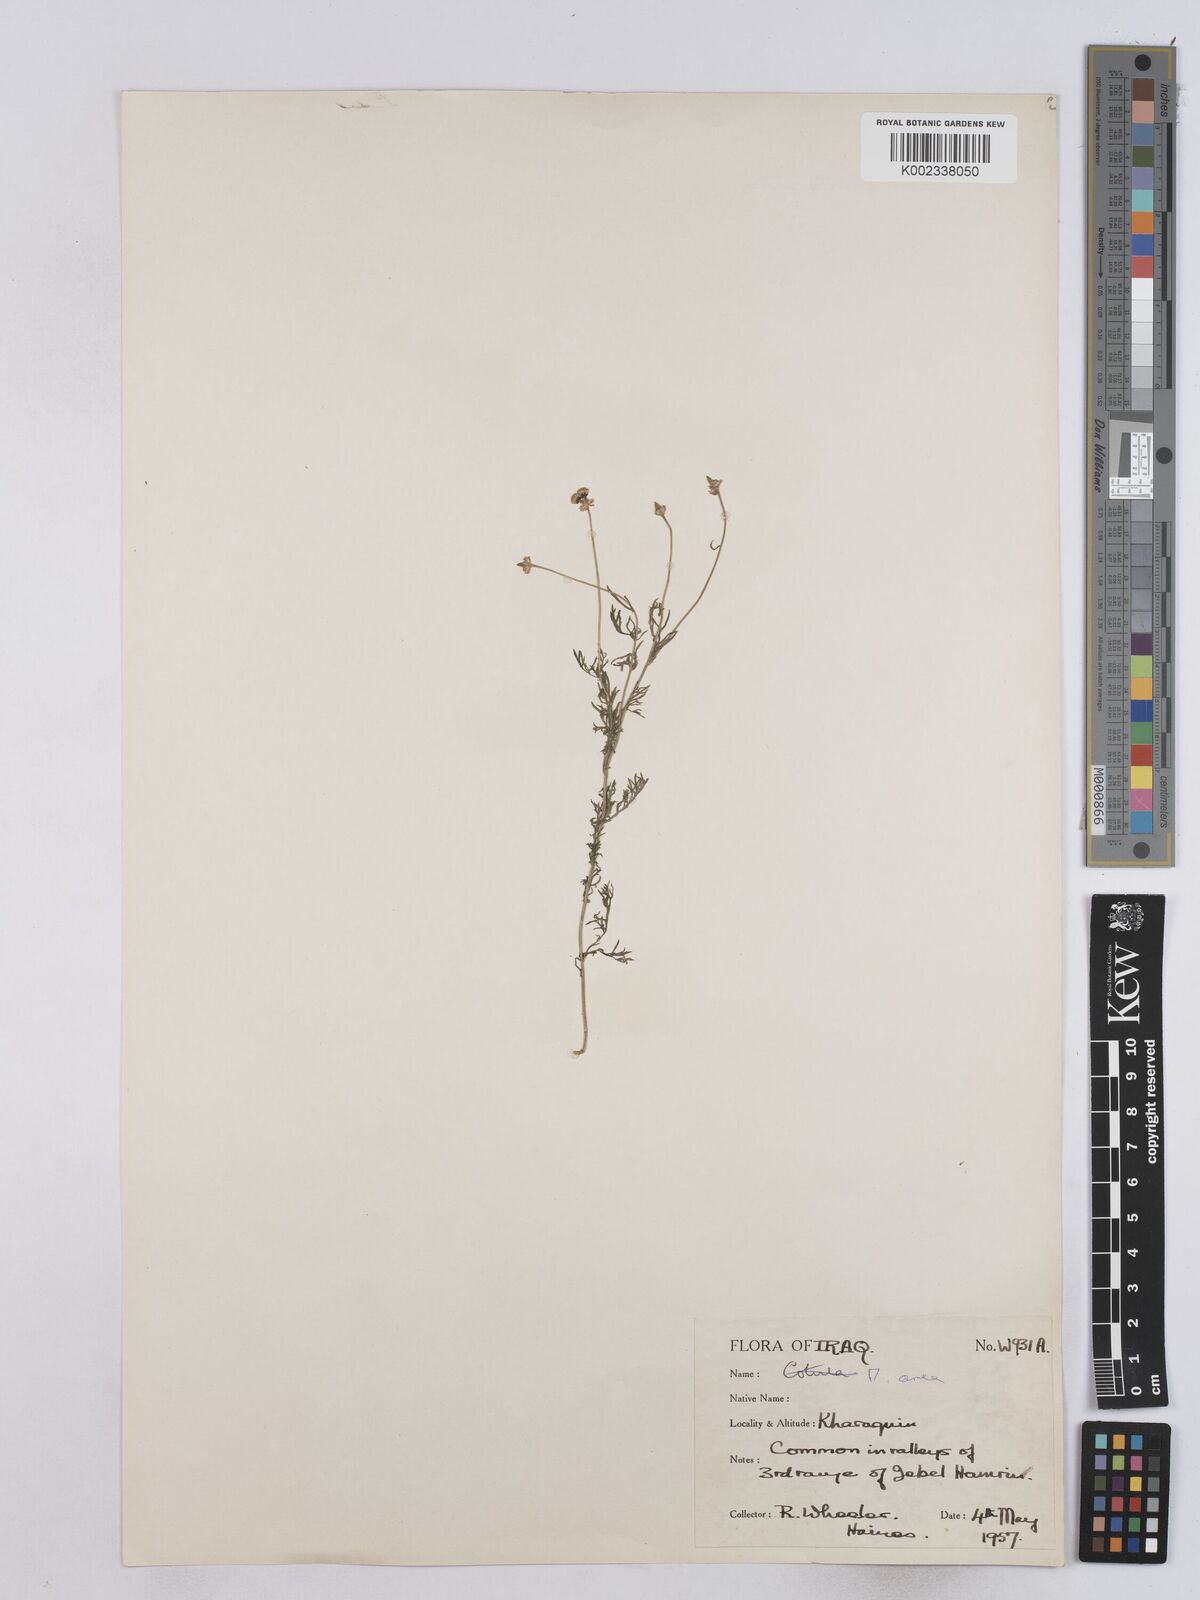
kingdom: Plantae
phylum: Tracheophyta
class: Magnoliopsida
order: Asterales
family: Asteraceae
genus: Matricaria
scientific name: Matricaria aurea
